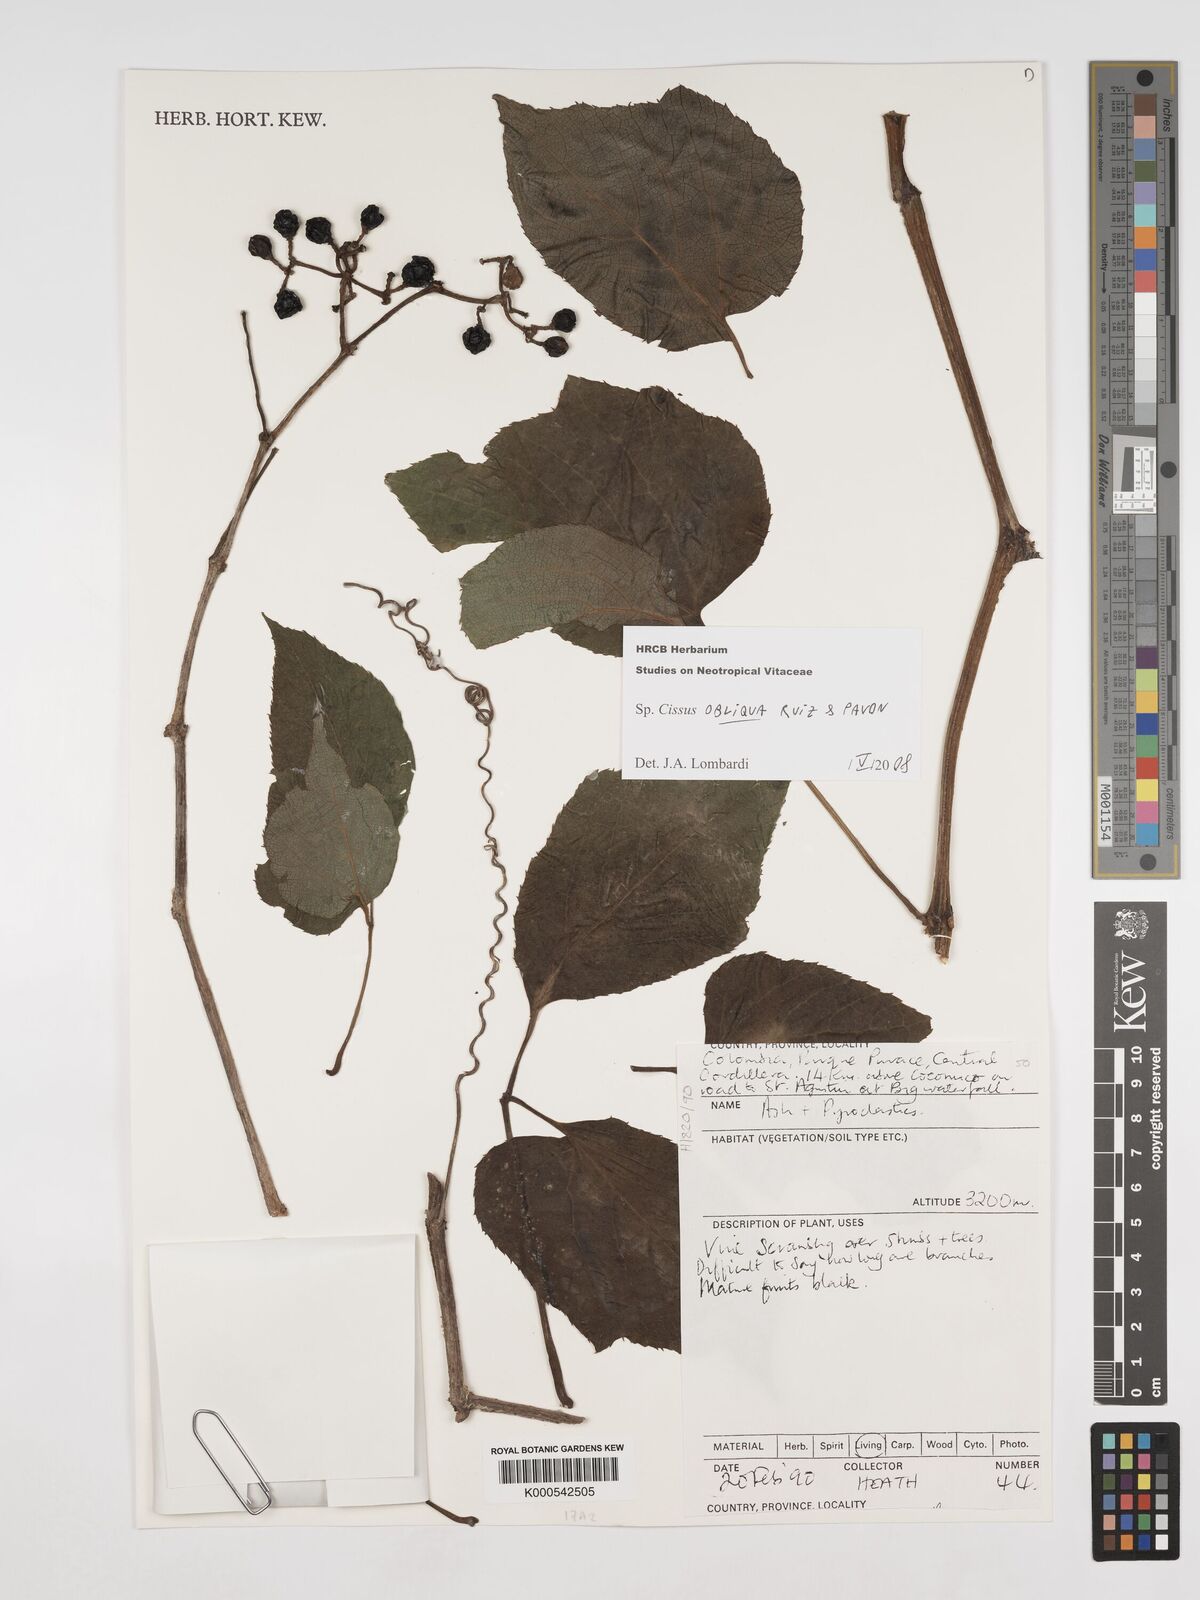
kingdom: Plantae
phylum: Tracheophyta
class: Magnoliopsida
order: Vitales
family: Vitaceae
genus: Cissus
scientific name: Cissus obliqua
